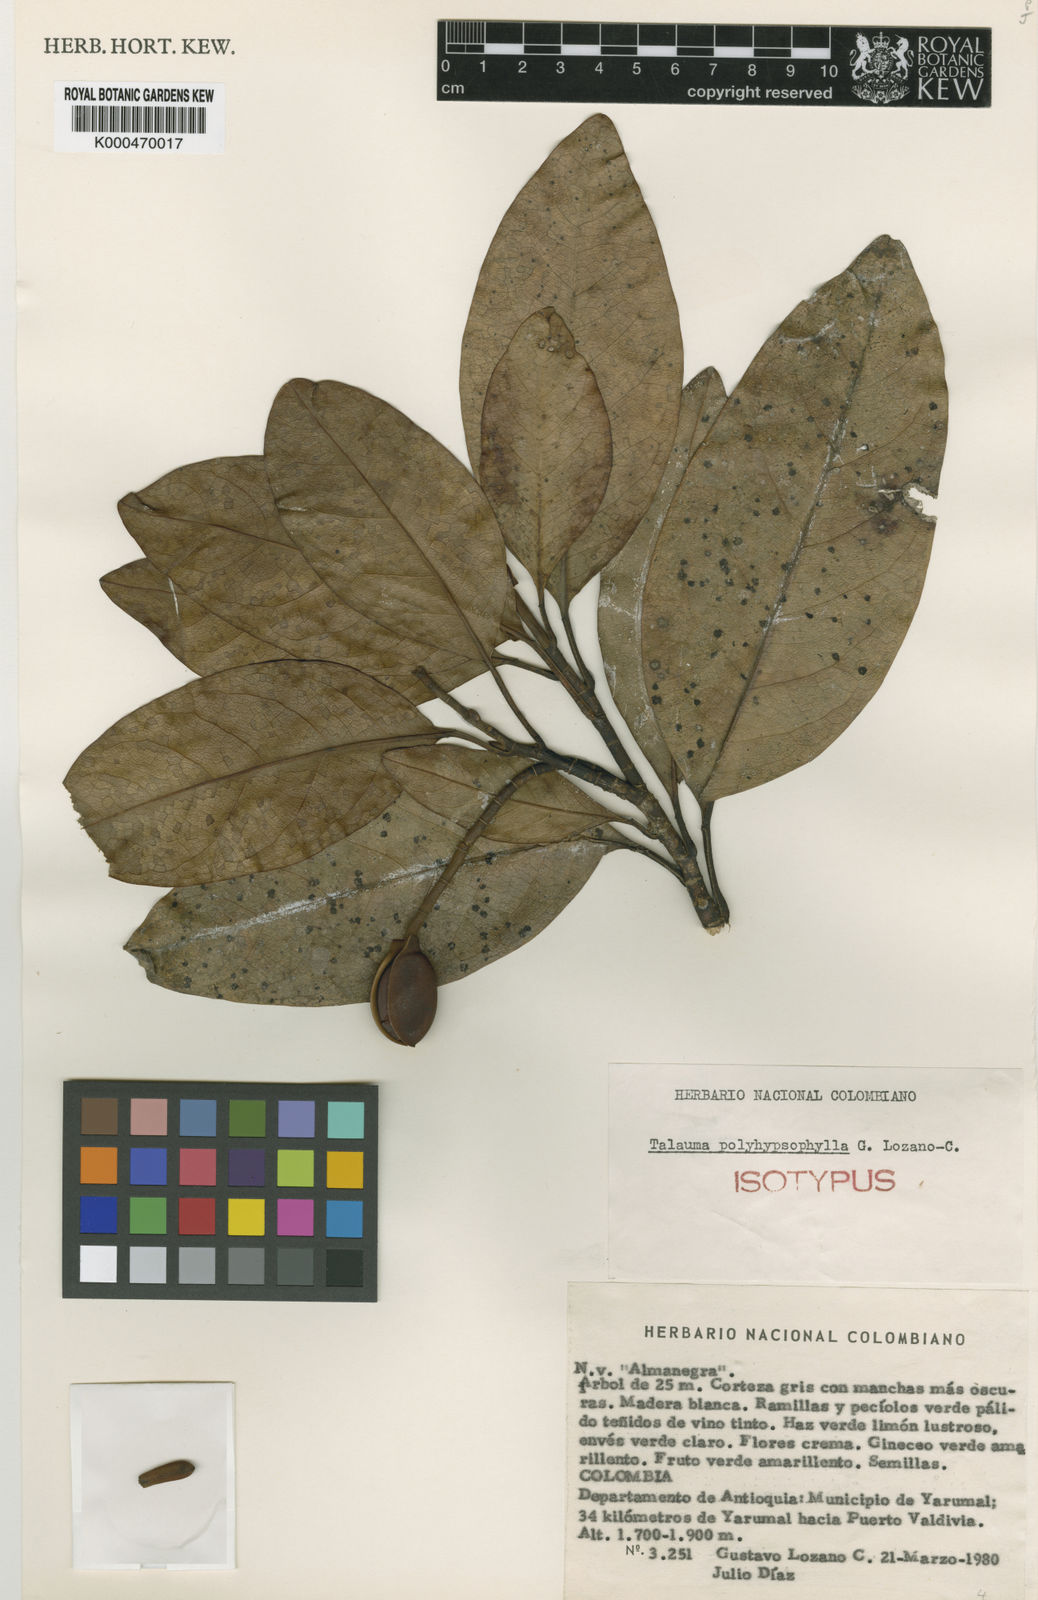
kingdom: Plantae
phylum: Tracheophyta
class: Magnoliopsida
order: Magnoliales
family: Magnoliaceae
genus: Magnolia
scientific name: Magnolia polyhypsophylla
